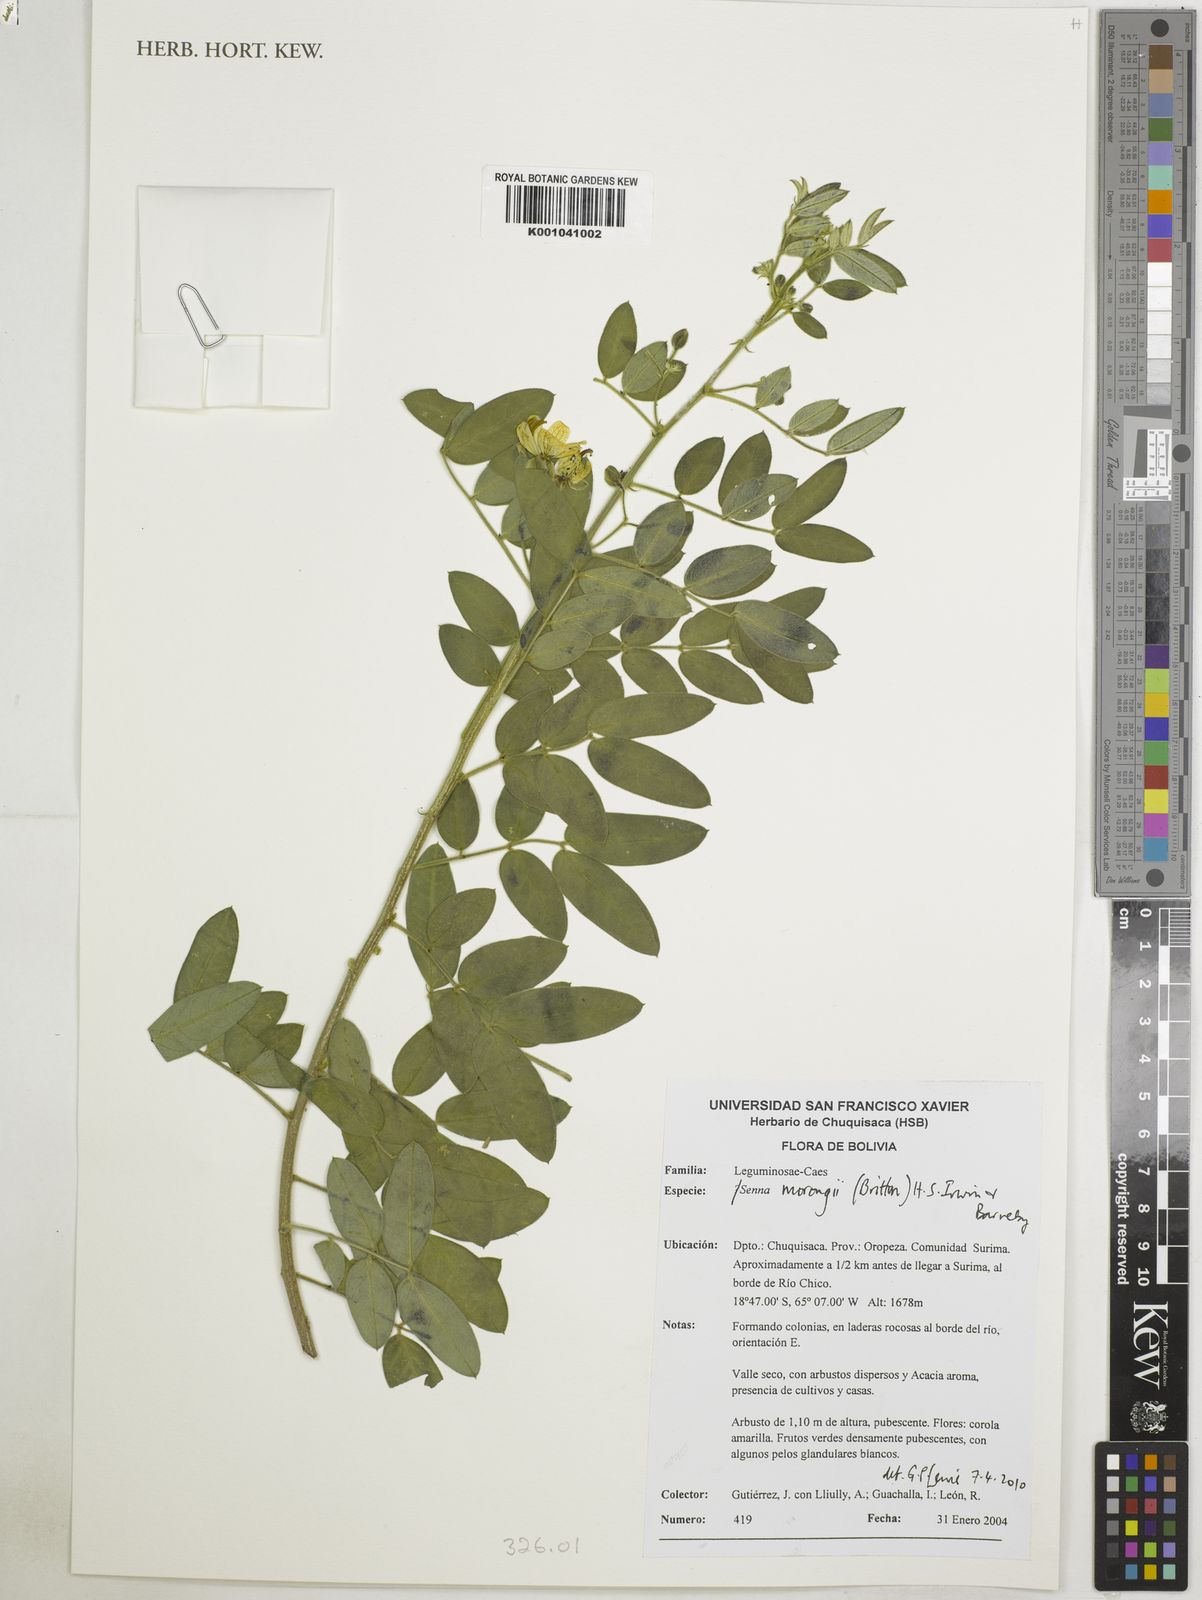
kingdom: Plantae
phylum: Tracheophyta
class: Magnoliopsida
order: Fabales
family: Fabaceae
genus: Senna
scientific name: Senna morongii
